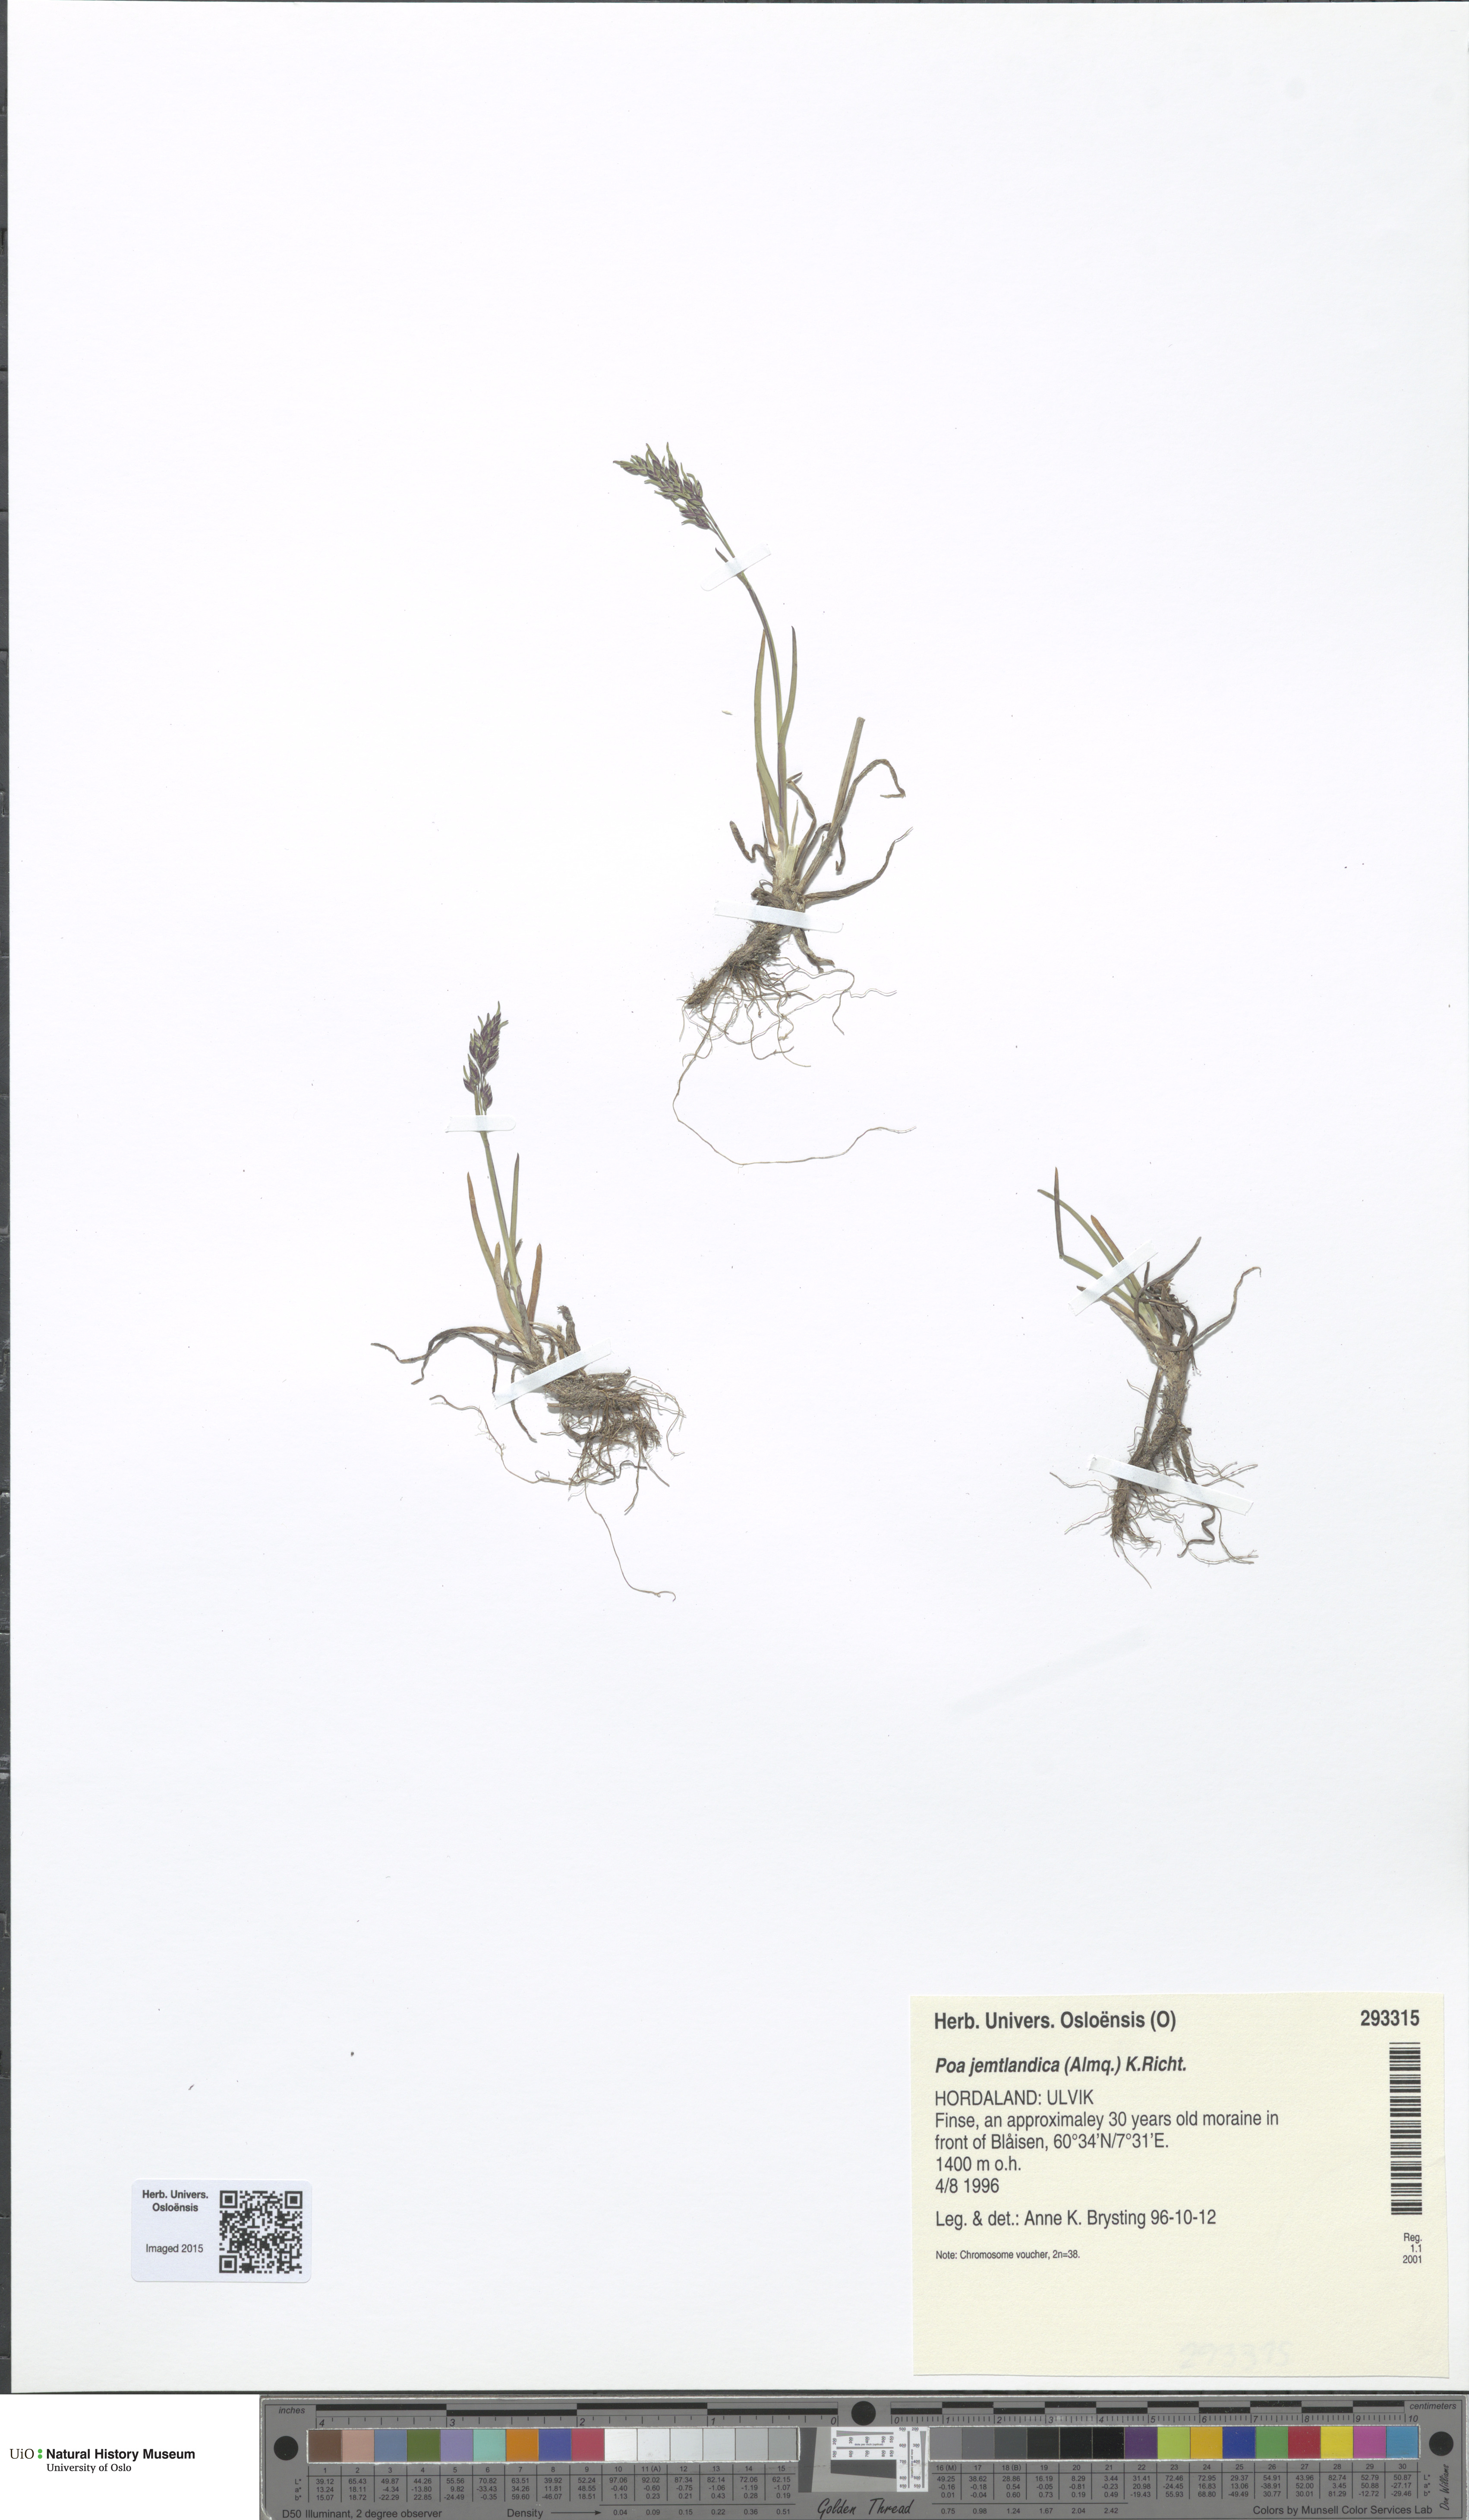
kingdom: Plantae
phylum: Tracheophyta
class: Liliopsida
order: Poales
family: Poaceae
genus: Poa
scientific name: Poa jemtlandica
